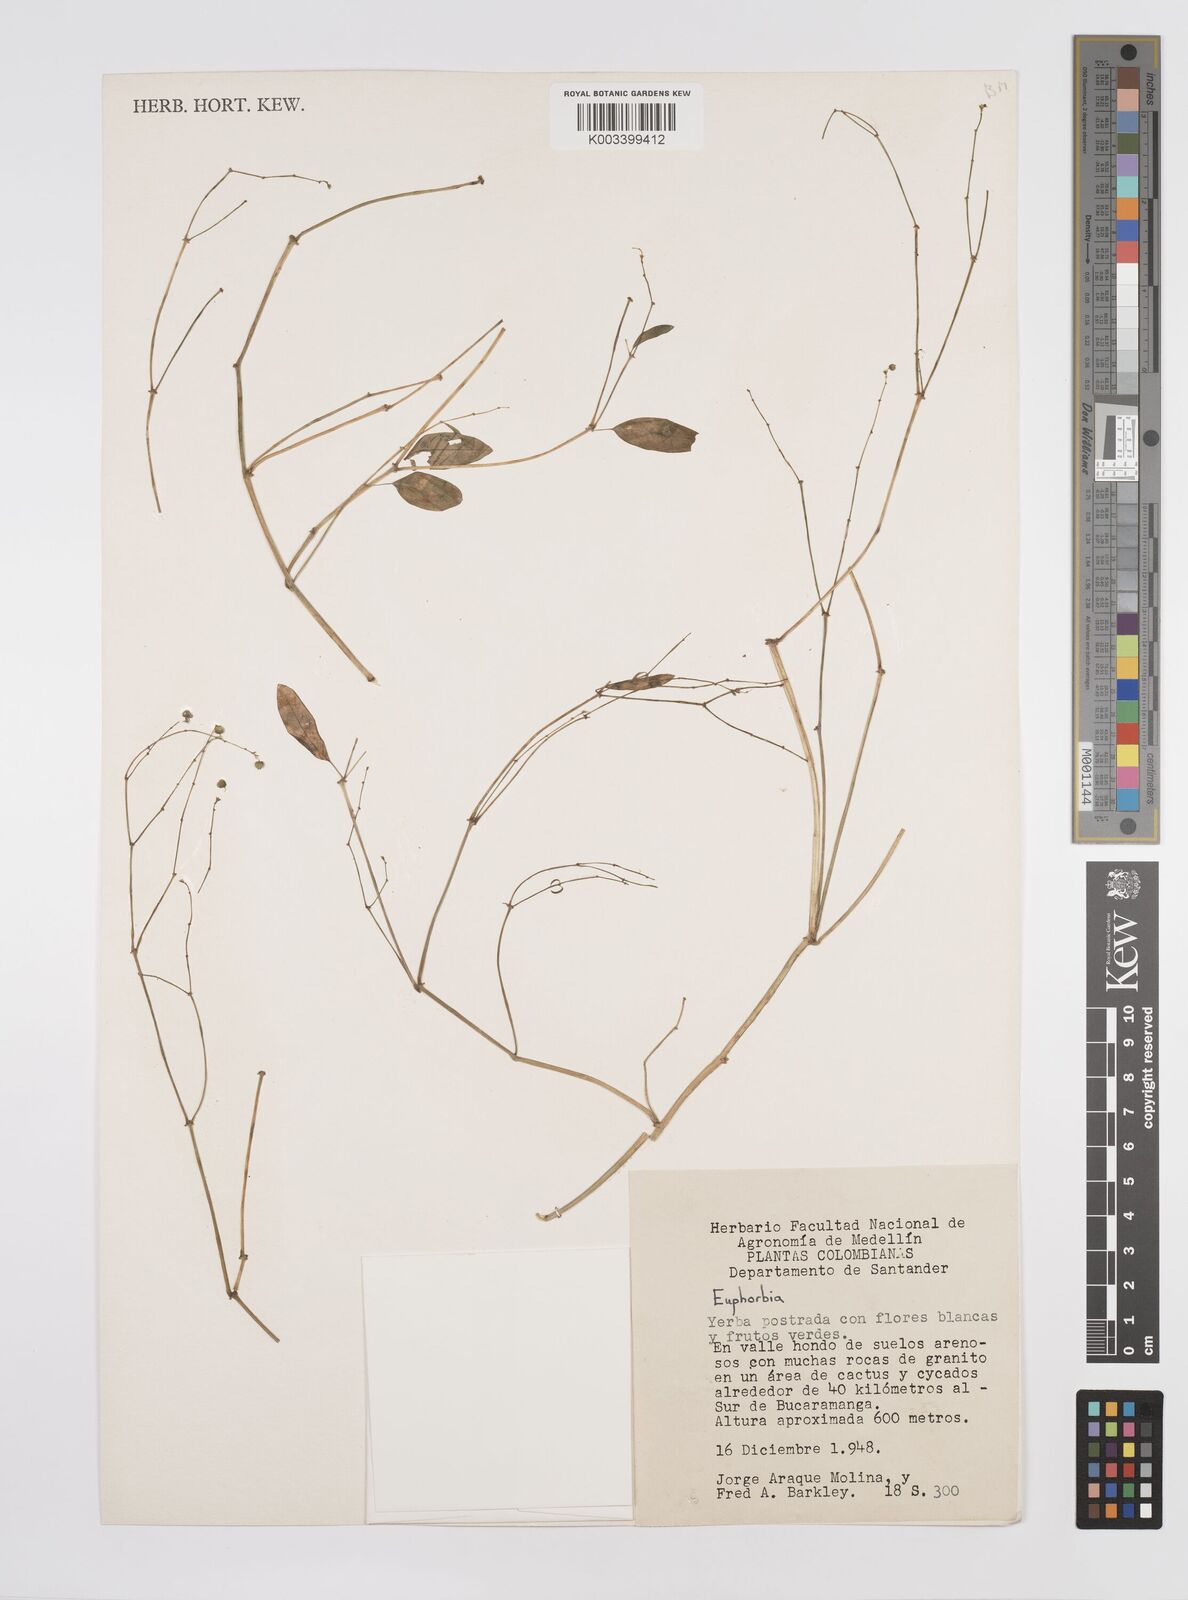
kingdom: Plantae
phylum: Tracheophyta
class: Magnoliopsida
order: Malpighiales
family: Euphorbiaceae
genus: Euphorbia
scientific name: Euphorbia
